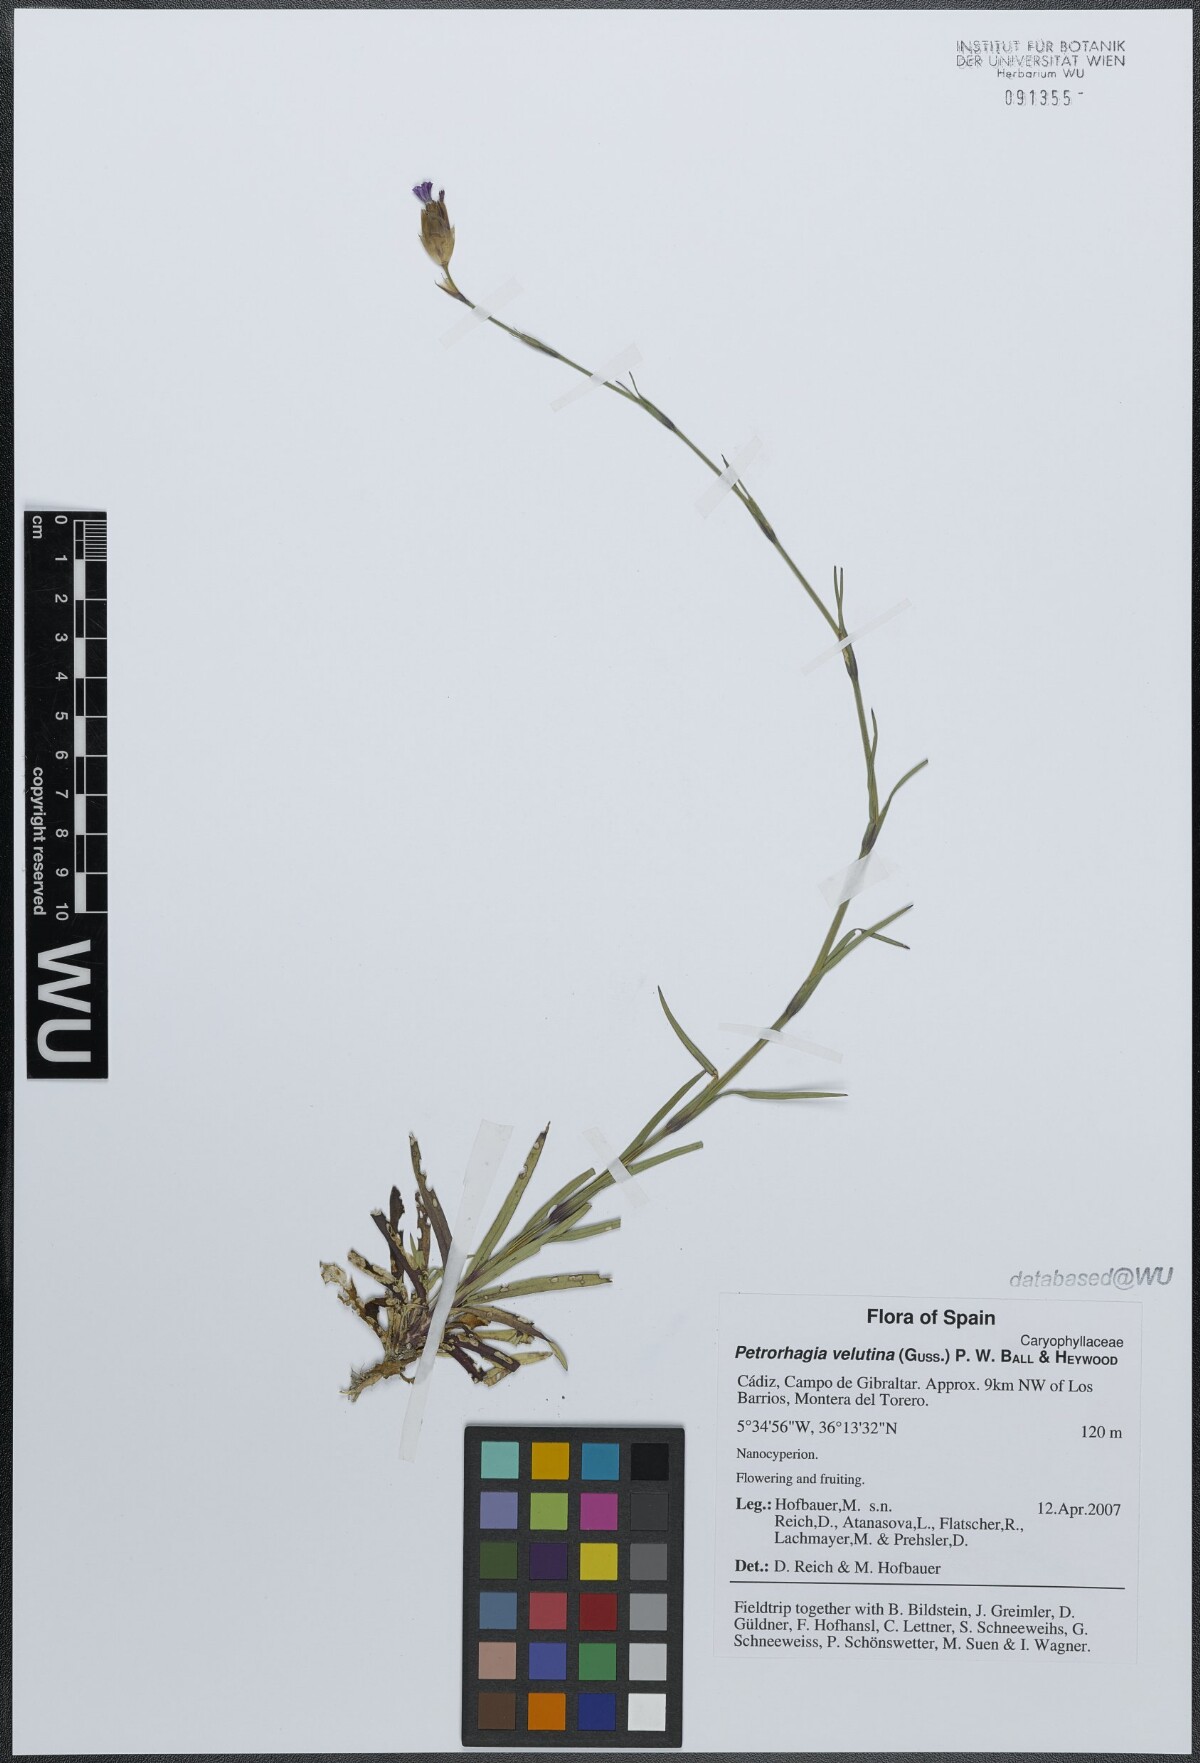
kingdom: Plantae
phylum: Tracheophyta
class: Magnoliopsida
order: Caryophyllales
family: Caryophyllaceae
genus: Petrorhagia
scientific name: Petrorhagia dubia
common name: Hairypink
